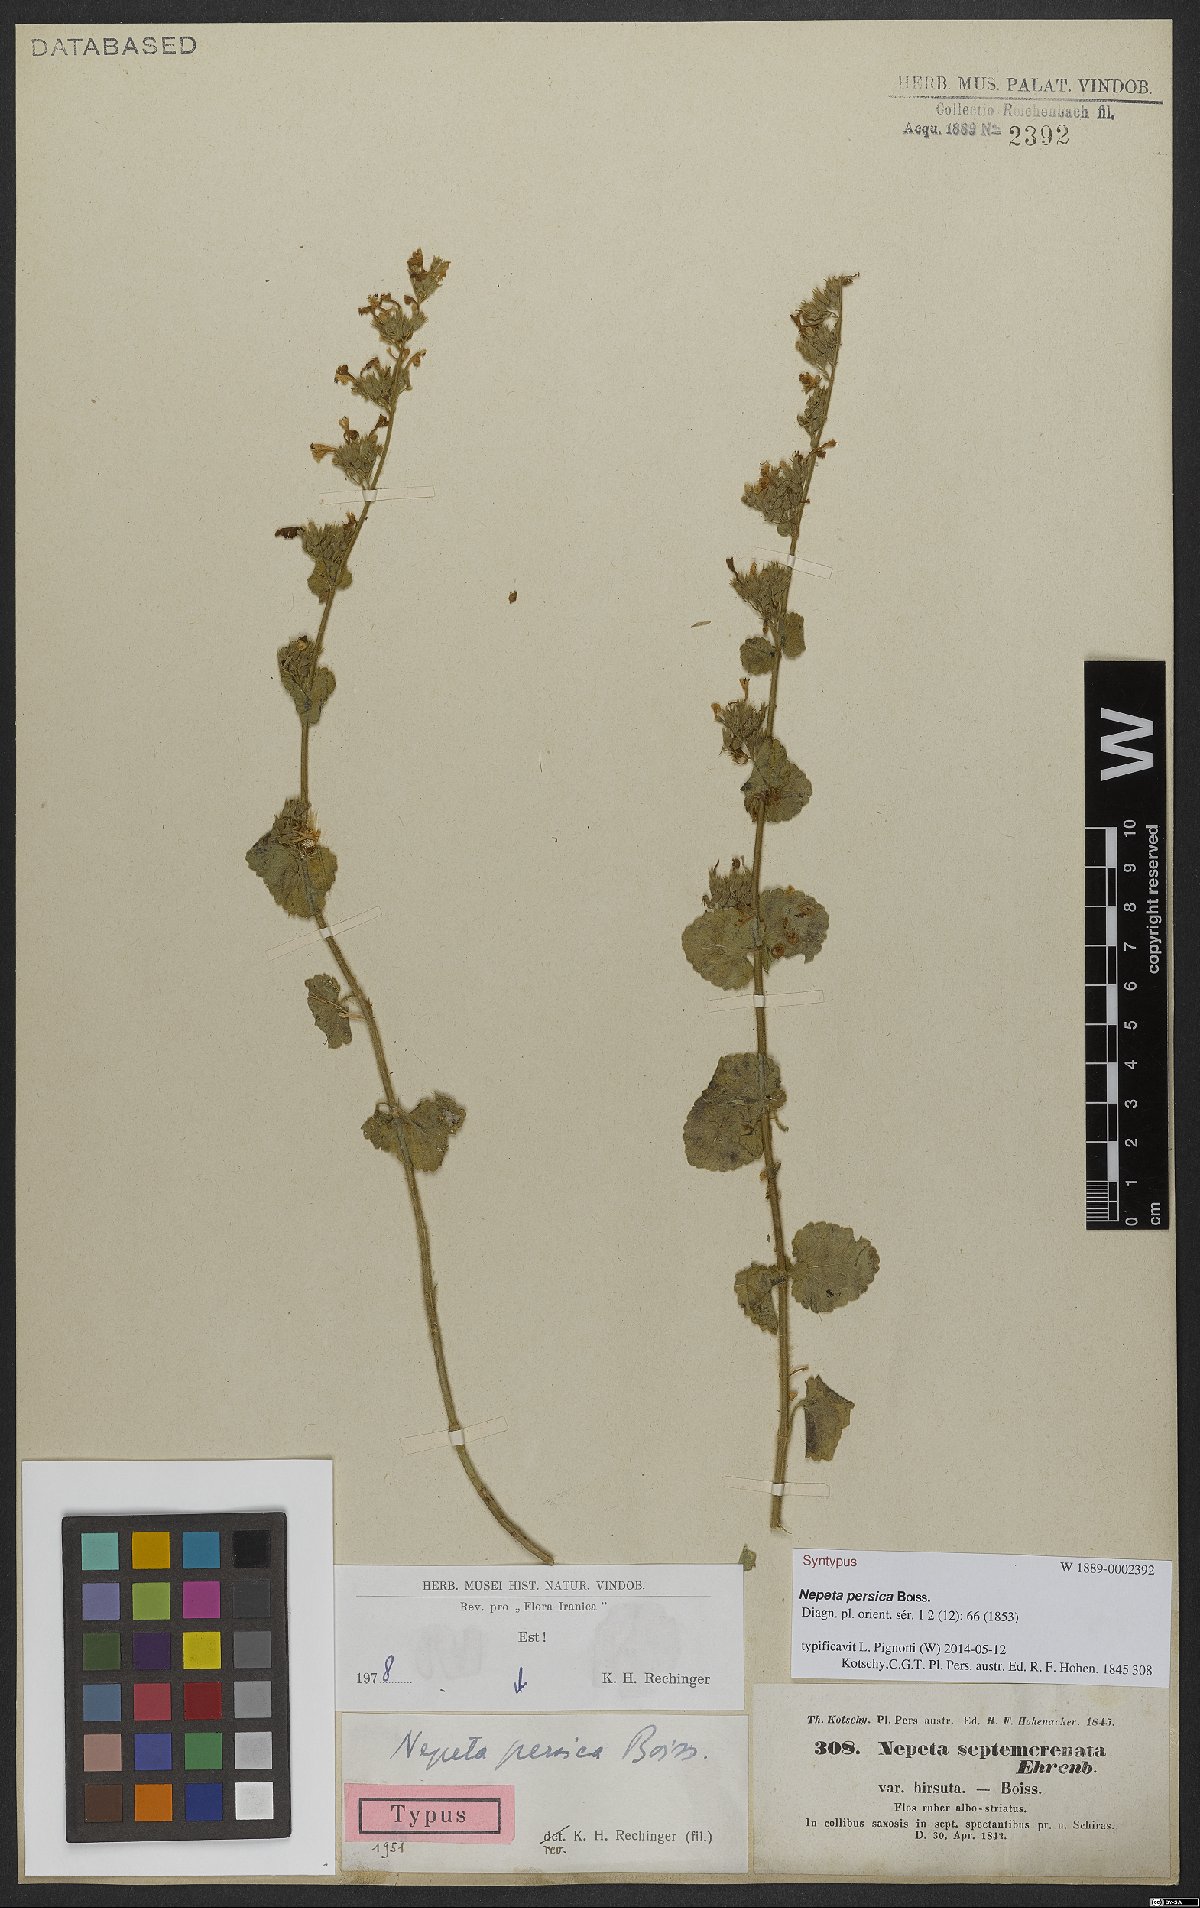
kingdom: Plantae
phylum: Tracheophyta
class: Magnoliopsida
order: Lamiales
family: Lamiaceae
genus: Nepeta
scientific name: Nepeta persica
